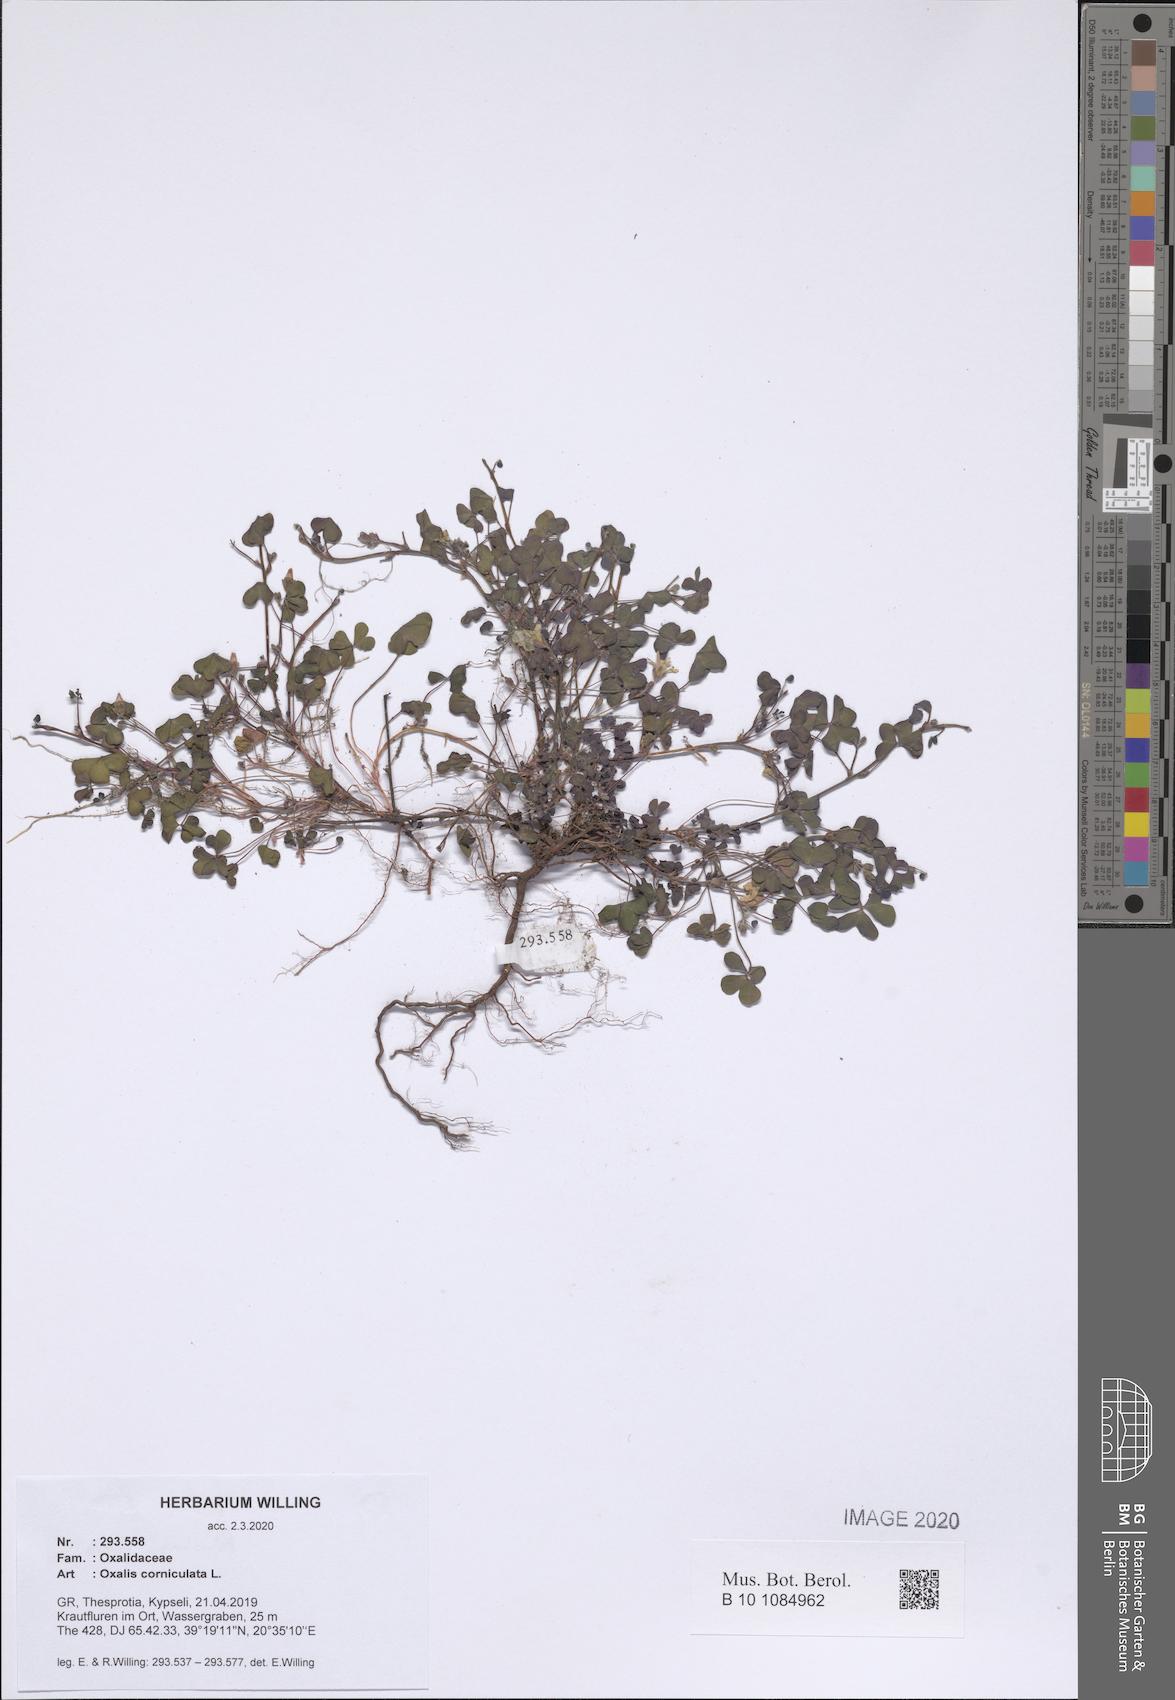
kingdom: Plantae
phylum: Tracheophyta
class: Magnoliopsida
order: Oxalidales
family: Oxalidaceae
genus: Oxalis
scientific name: Oxalis corniculata
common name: Procumbent yellow-sorrel
